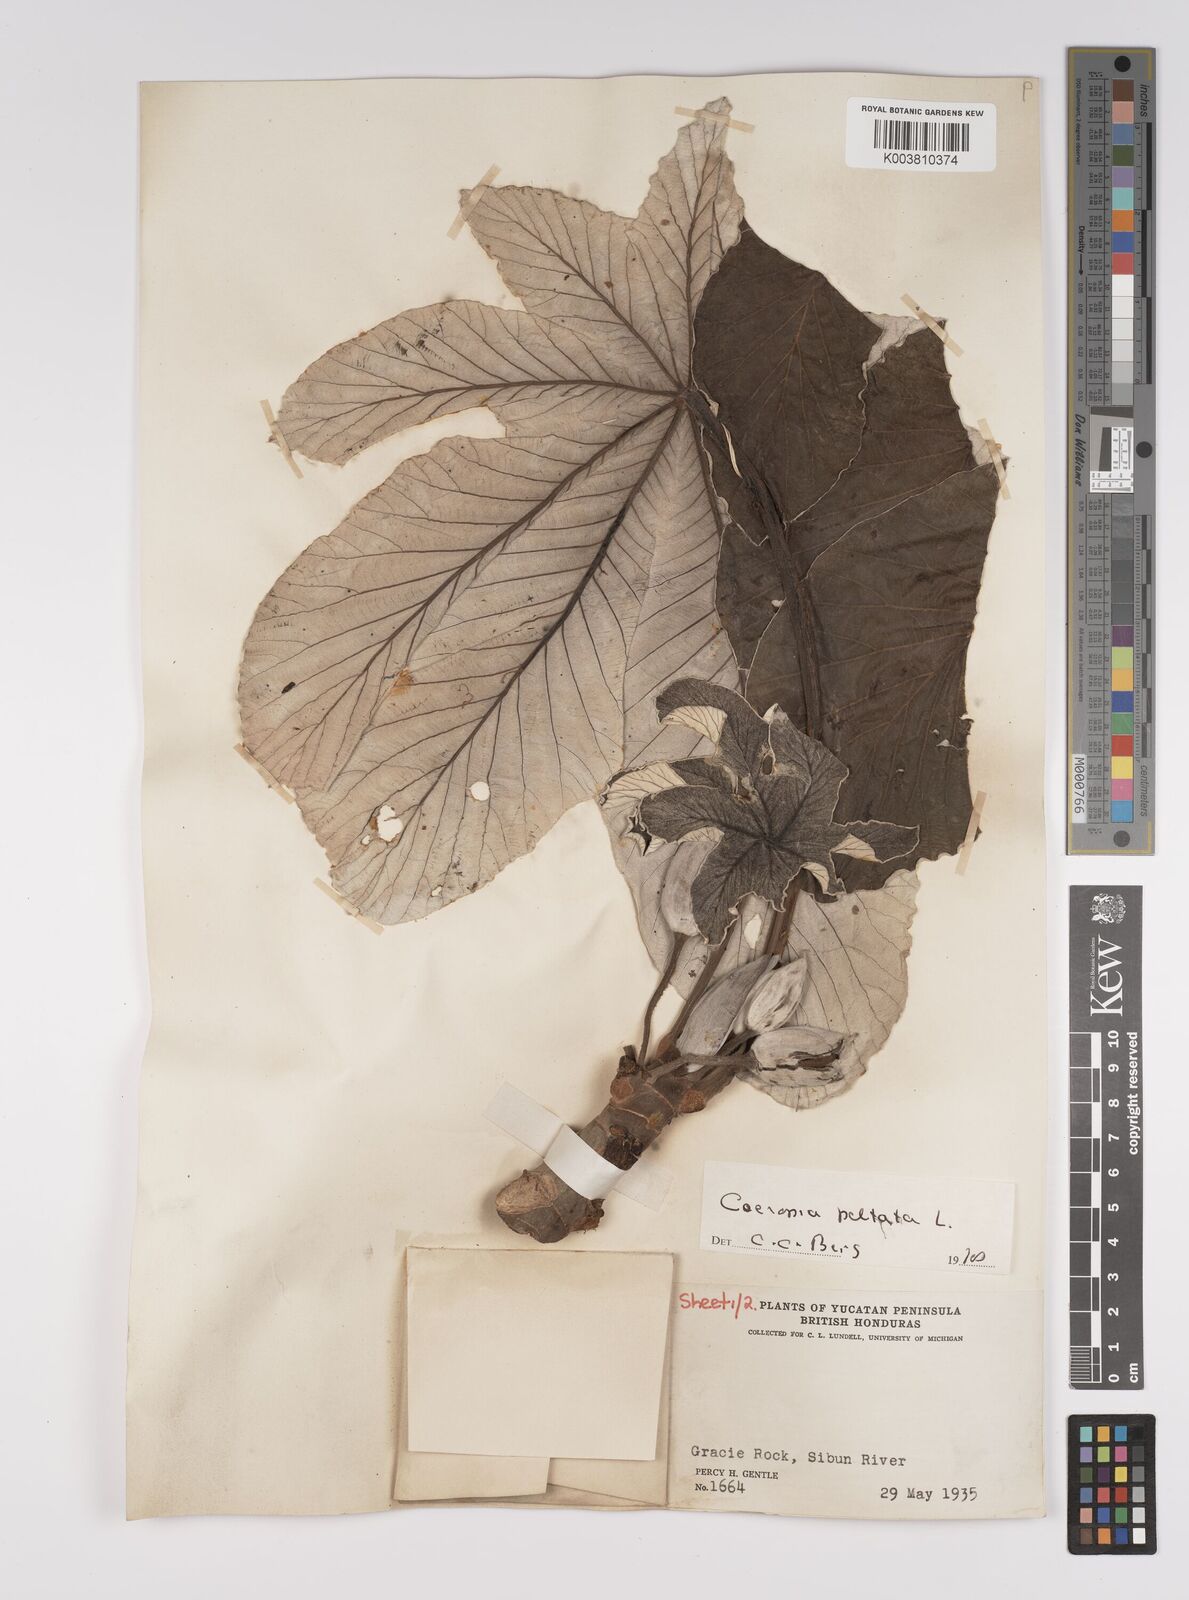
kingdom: Plantae
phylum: Tracheophyta
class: Magnoliopsida
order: Rosales
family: Urticaceae
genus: Cecropia
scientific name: Cecropia peltata
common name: Trumpet-tree
